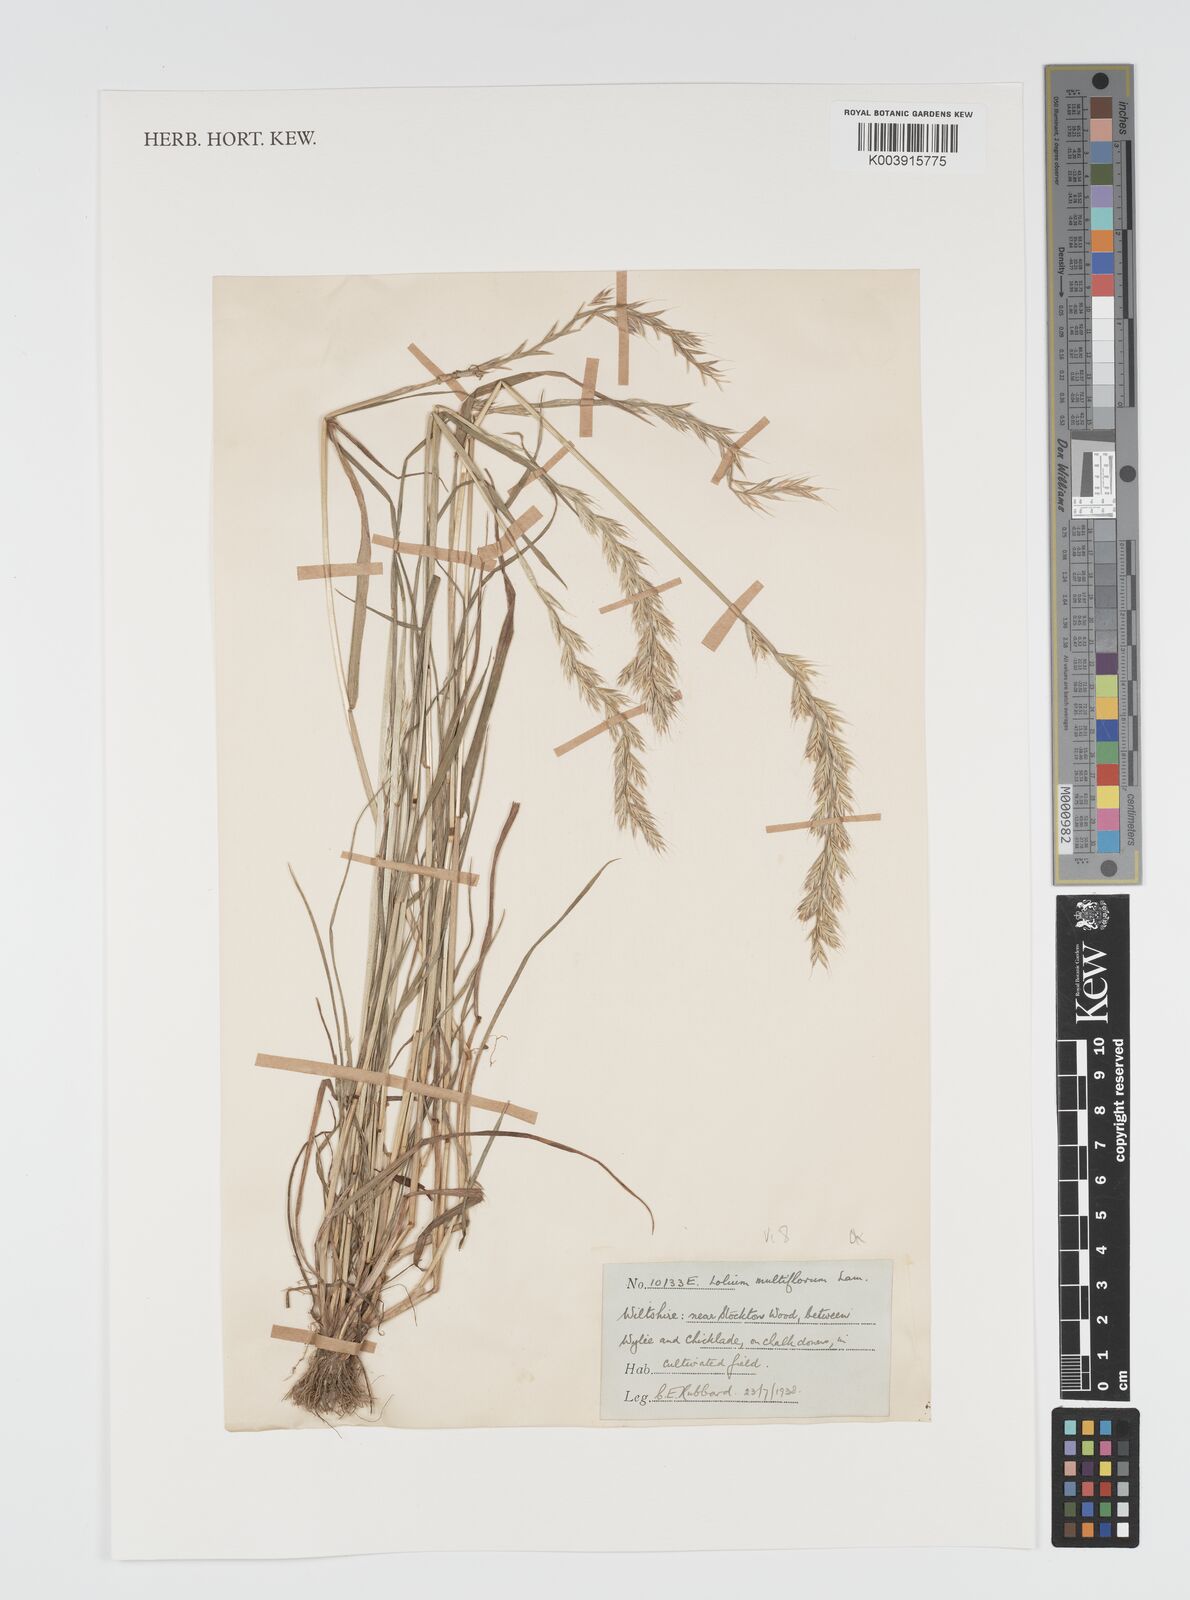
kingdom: Plantae
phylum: Tracheophyta
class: Liliopsida
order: Poales
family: Poaceae
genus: Lolium
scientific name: Lolium multiflorum
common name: Annual ryegrass
